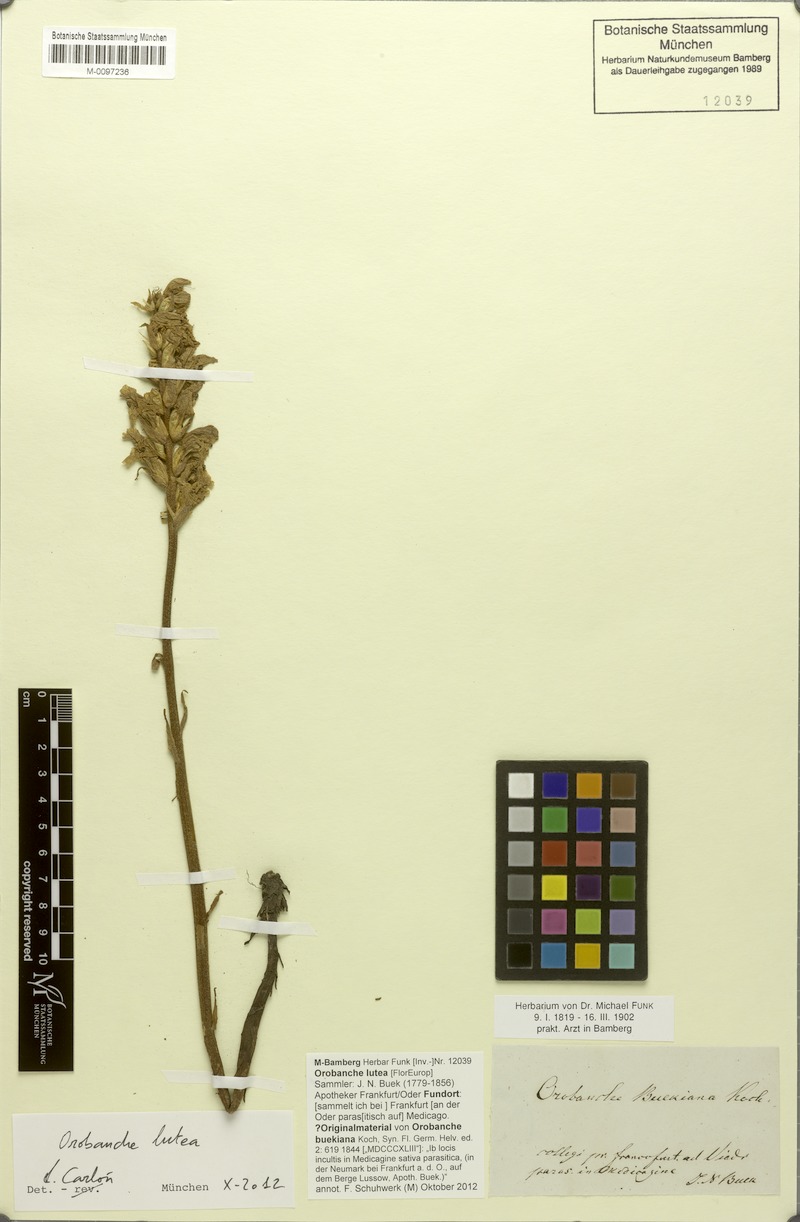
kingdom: Plantae
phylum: Tracheophyta
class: Magnoliopsida
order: Lamiales
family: Orobanchaceae
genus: Orobanche
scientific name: Orobanche lutea
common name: Yellow broomrape
